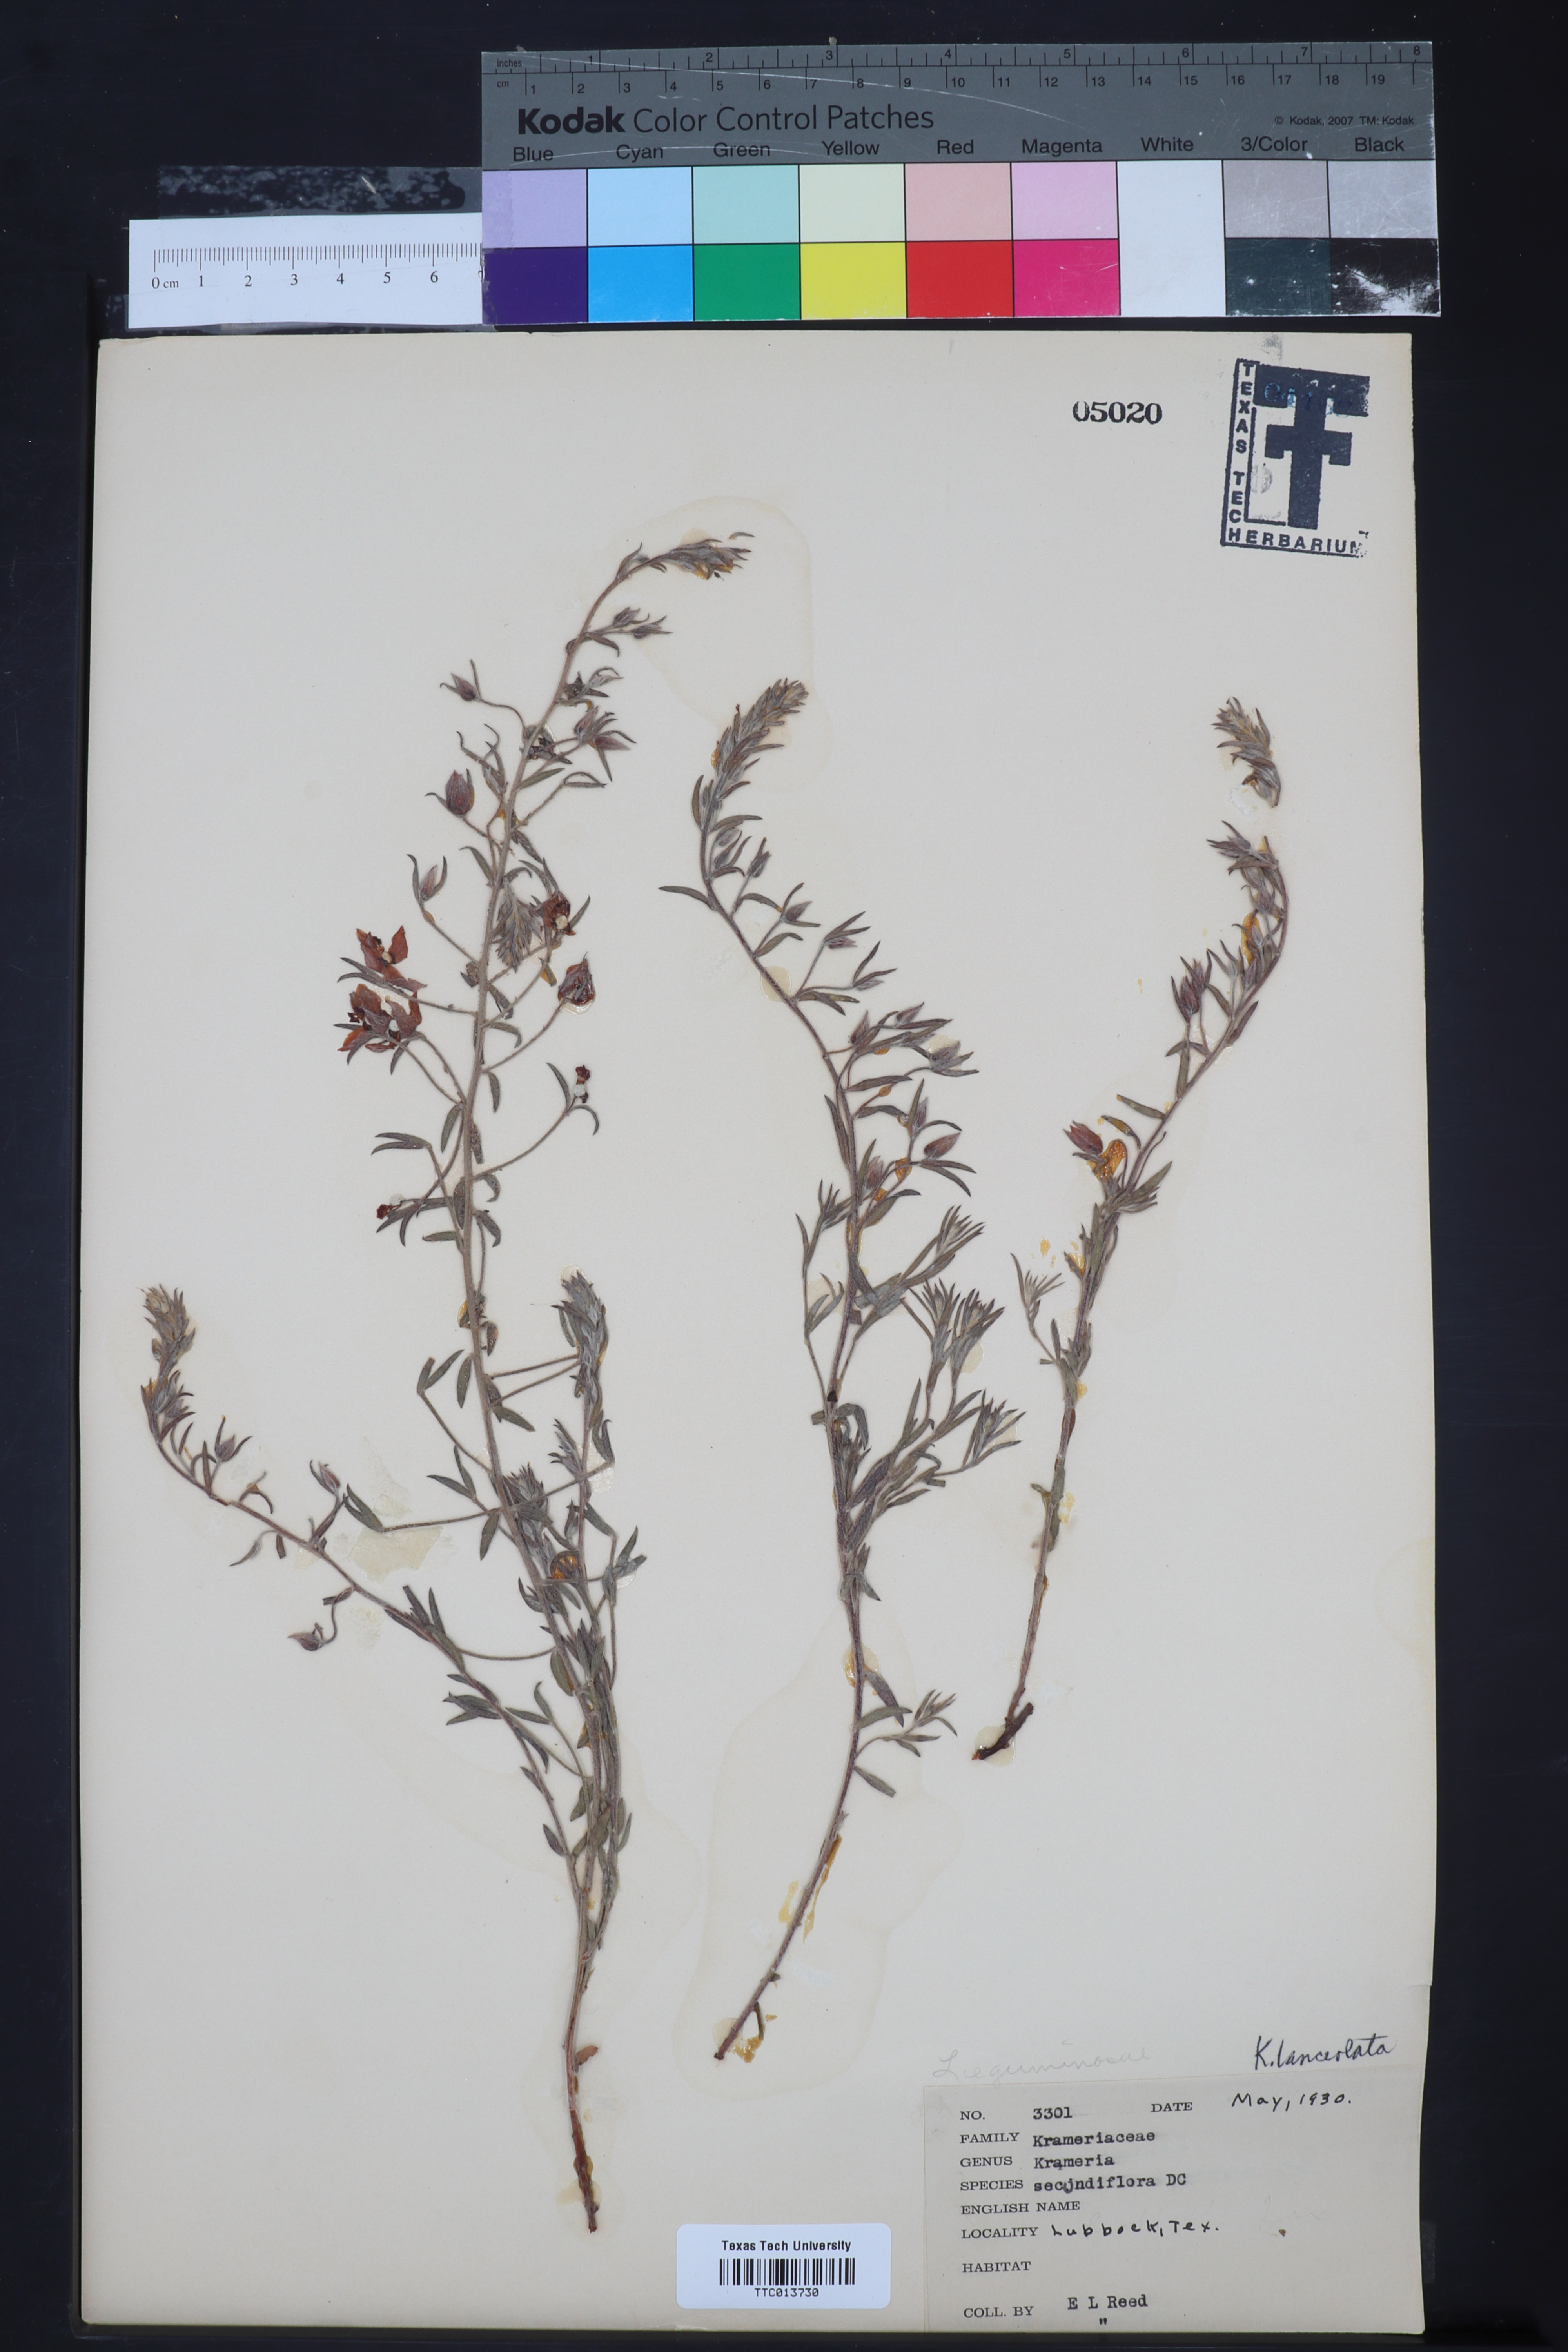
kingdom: Plantae
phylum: Tracheophyta
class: Magnoliopsida
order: Zygophyllales
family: Krameriaceae
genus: Krameria
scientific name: Krameria lanceolata
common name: Ratany
